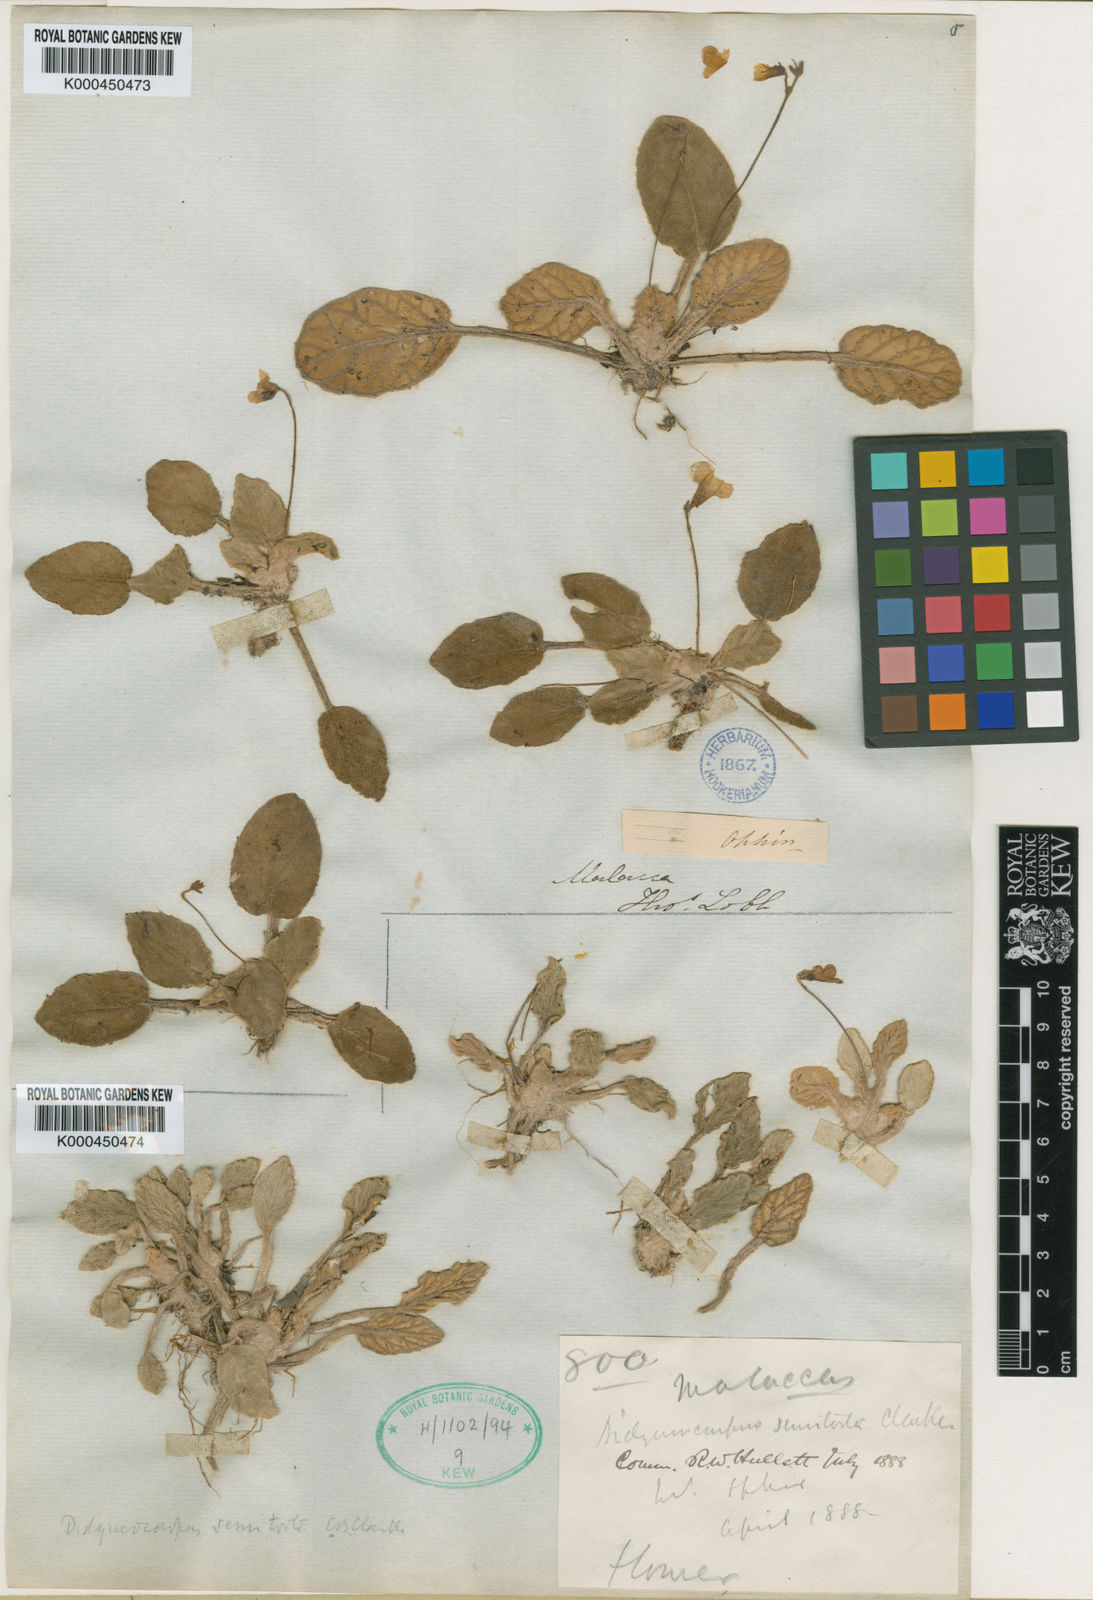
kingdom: Plantae
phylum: Tracheophyta
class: Magnoliopsida
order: Lamiales
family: Gesneriaceae
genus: Loxocarpus
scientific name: Loxocarpus semitortus
